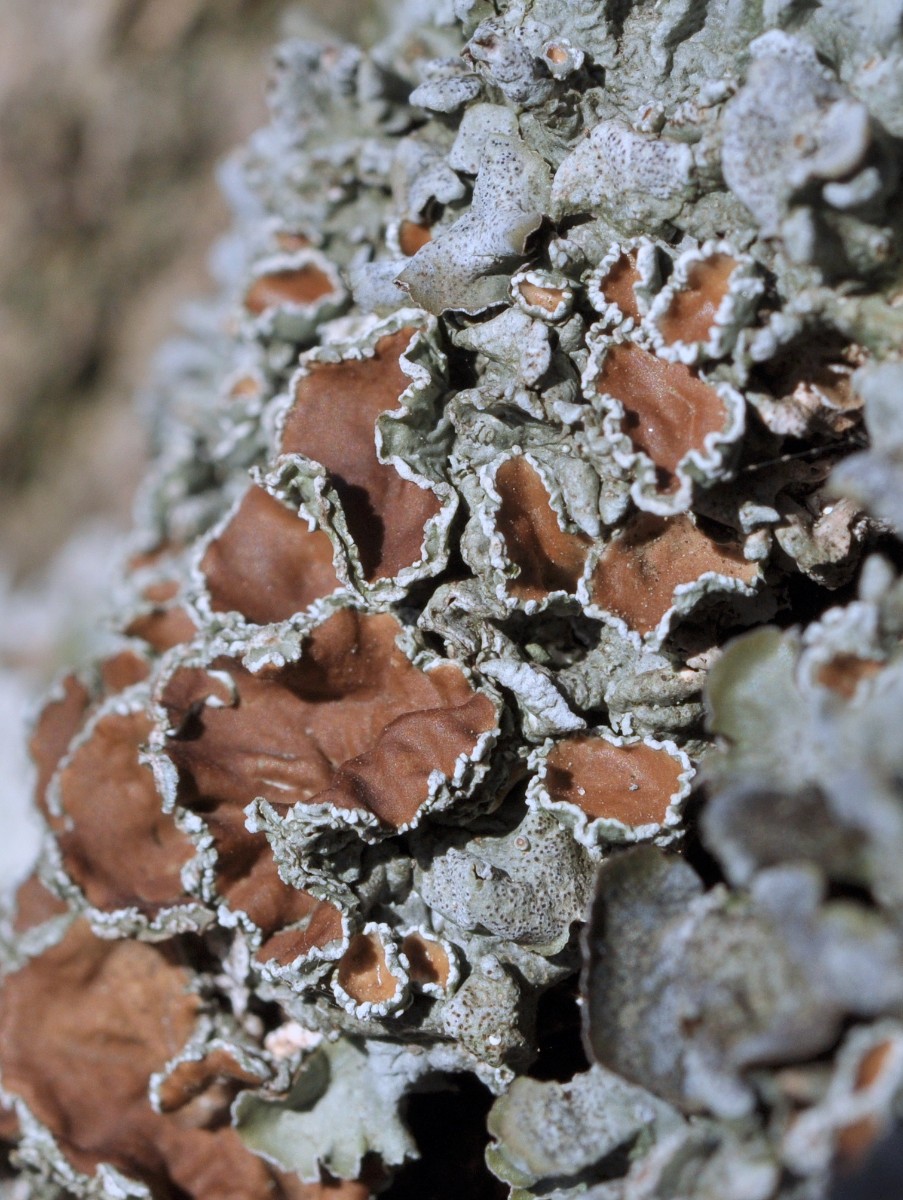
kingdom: Fungi
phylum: Ascomycota
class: Lecanoromycetes
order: Lecanorales
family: Parmeliaceae
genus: Pleurosticta
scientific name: Pleurosticta acetabulum
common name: stor skållav
